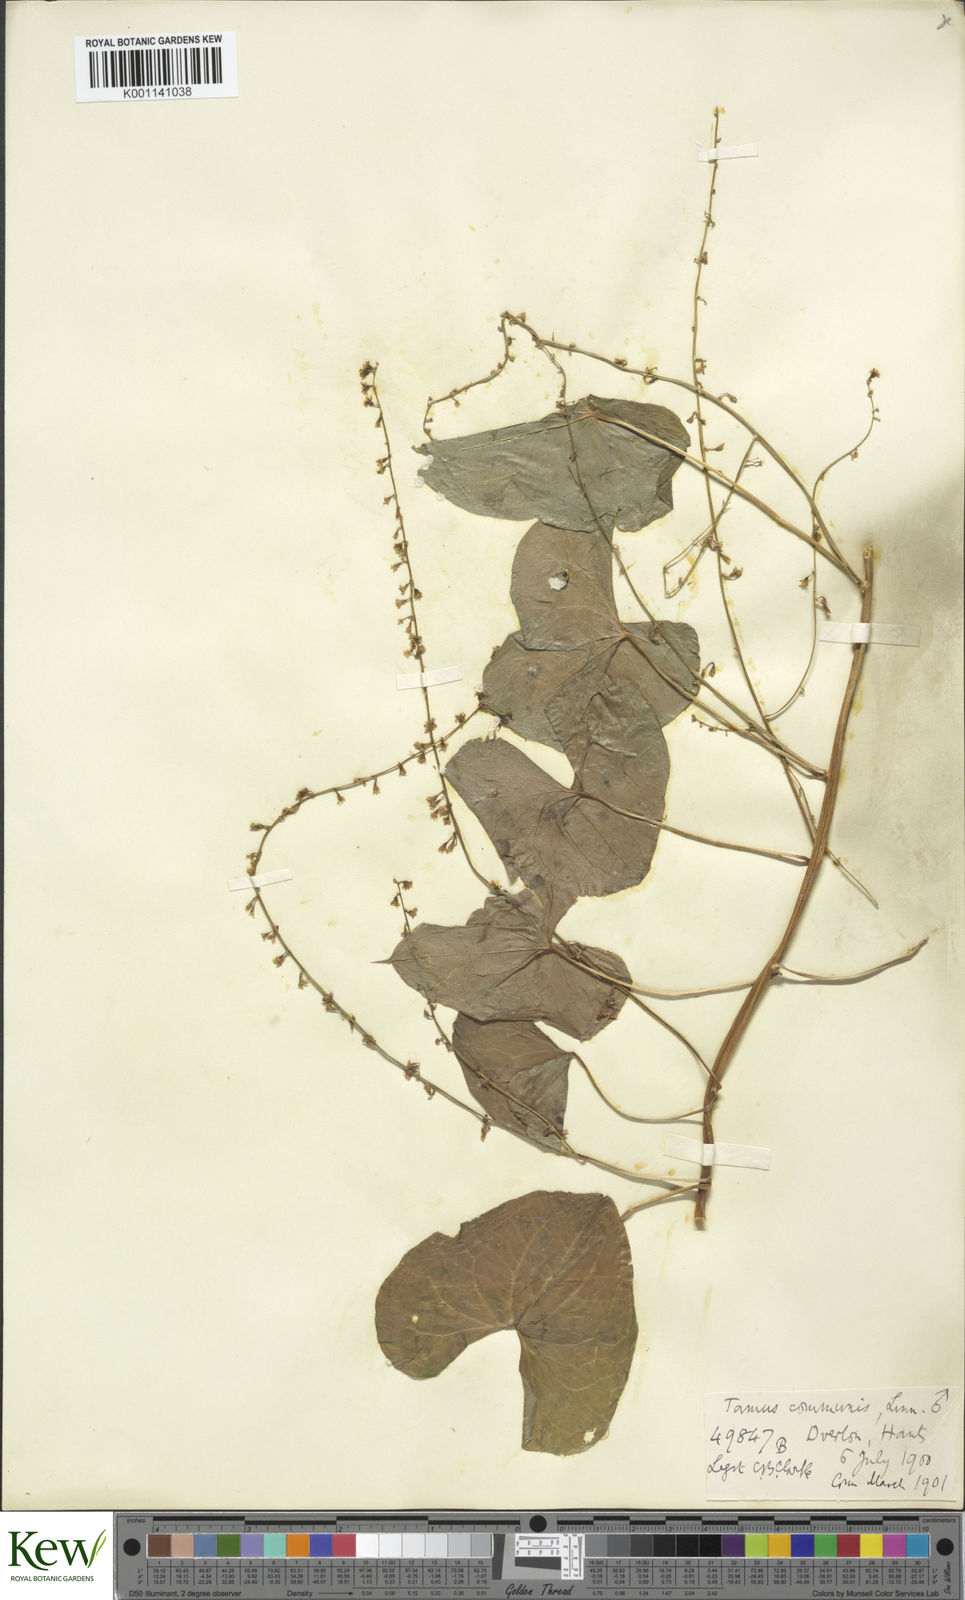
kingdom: Plantae
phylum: Tracheophyta
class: Liliopsida
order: Dioscoreales
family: Dioscoreaceae
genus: Dioscorea
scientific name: Dioscorea communis
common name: Black-bindweed
